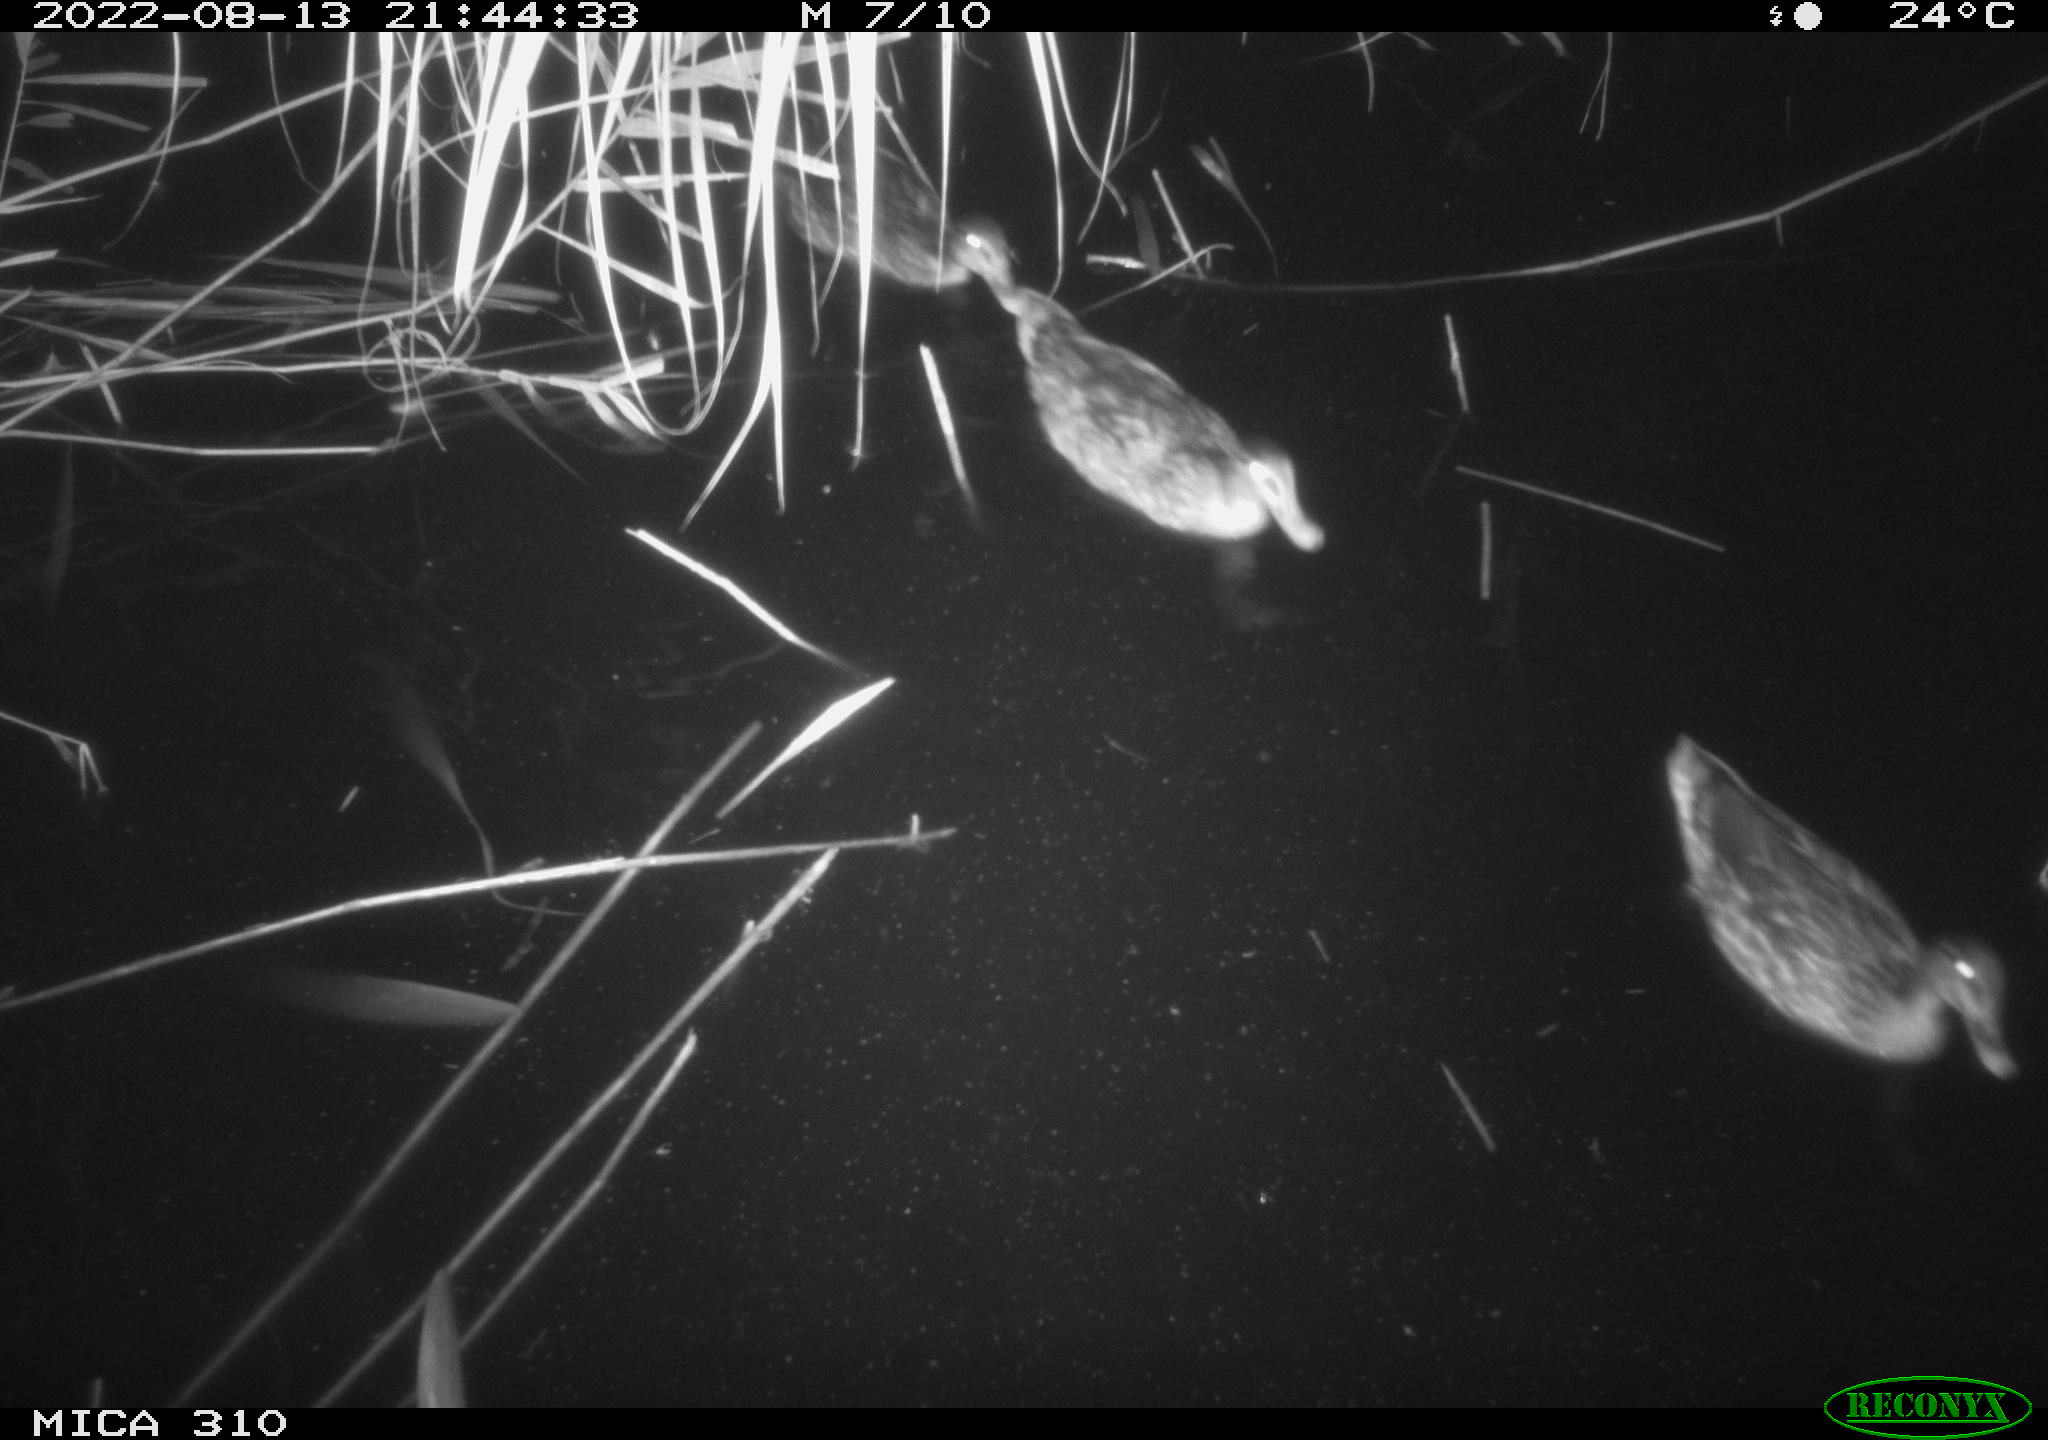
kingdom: Animalia
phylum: Chordata
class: Aves
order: Anseriformes
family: Anatidae
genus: Mareca
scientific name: Mareca strepera
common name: Gadwall
